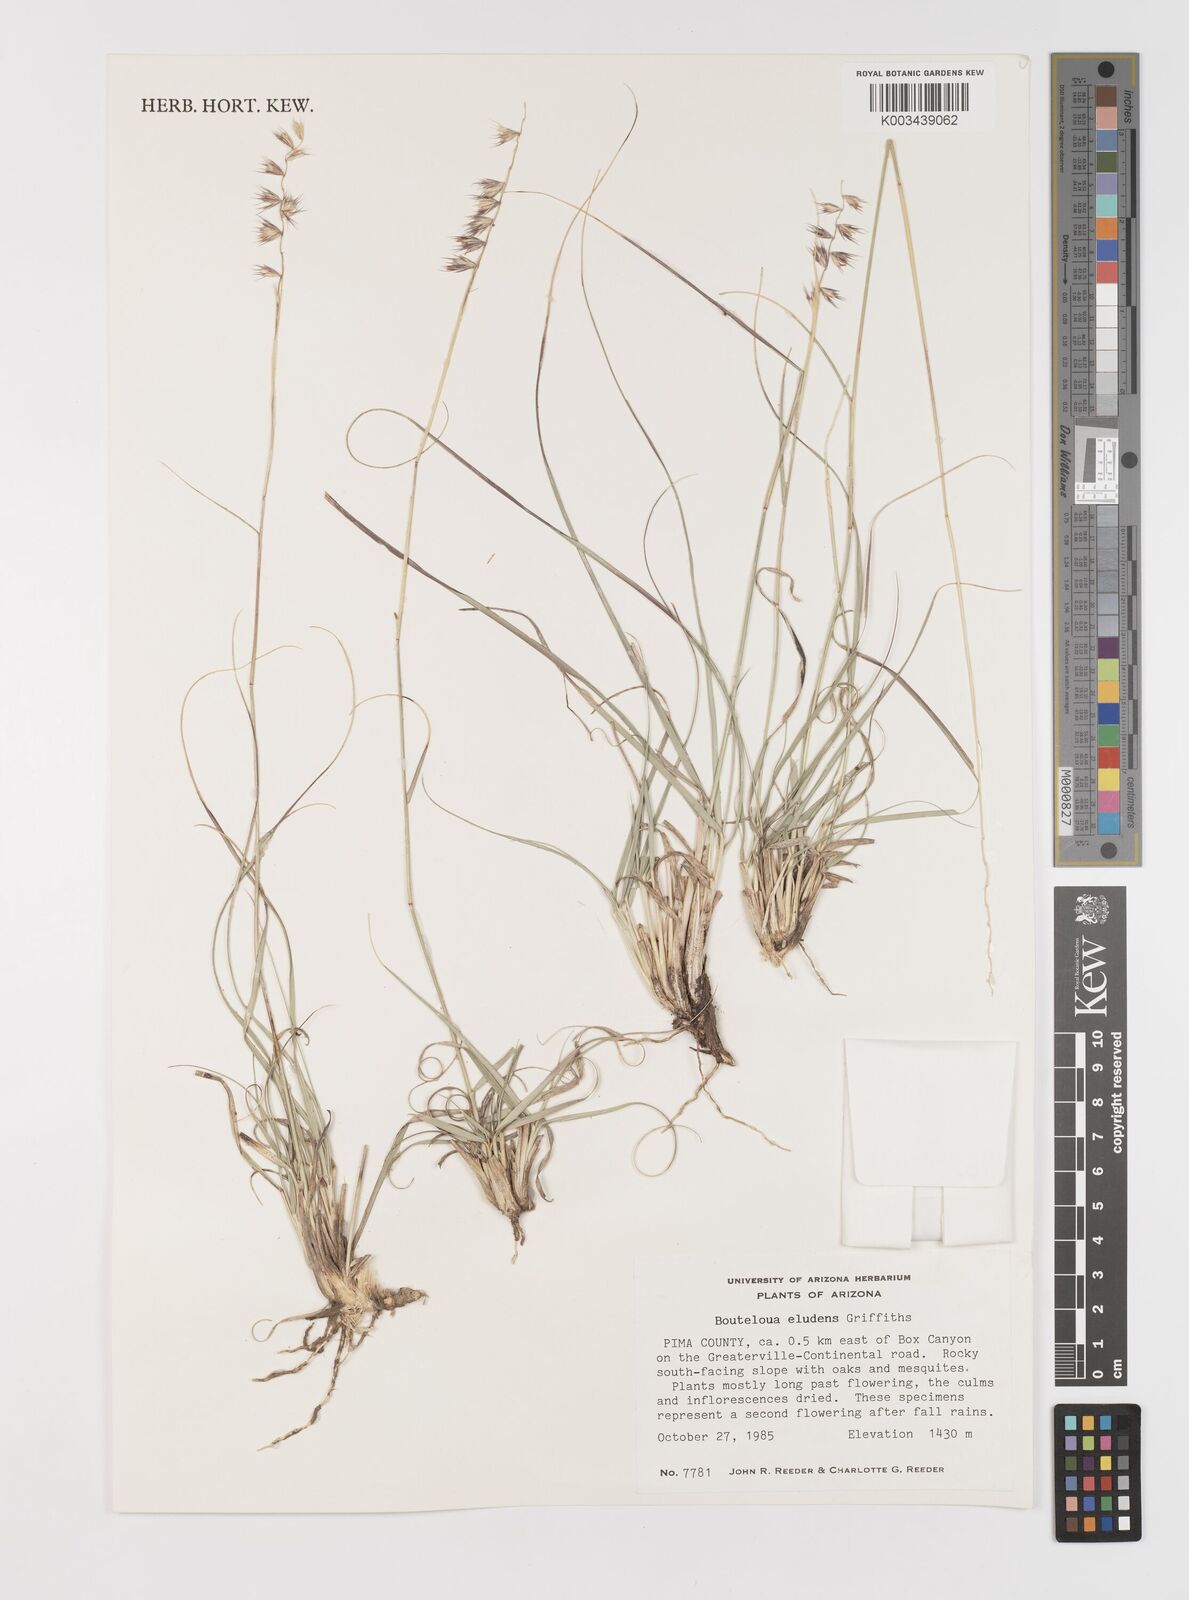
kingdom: Plantae
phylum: Tracheophyta
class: Liliopsida
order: Poales
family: Poaceae
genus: Bouteloua
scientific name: Bouteloua eludens
